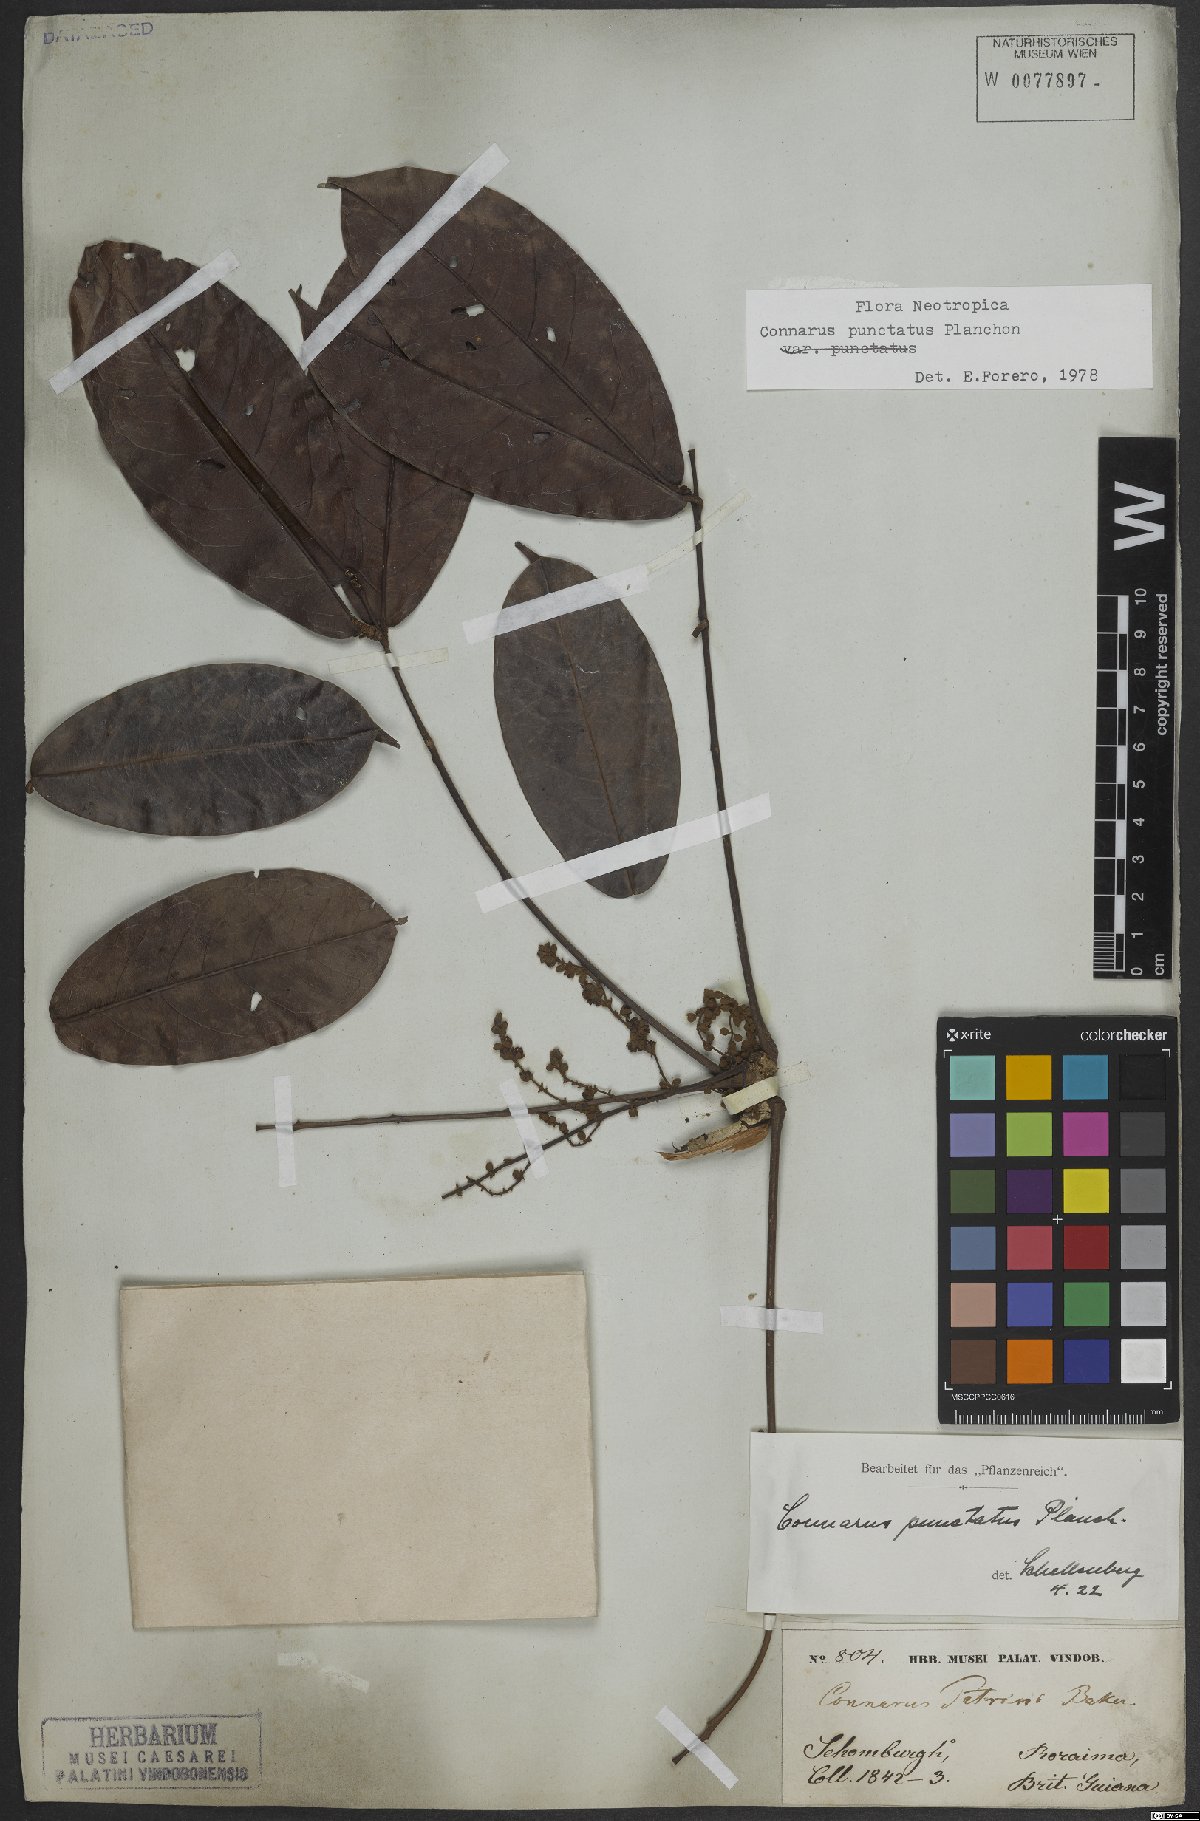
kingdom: Plantae
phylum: Tracheophyta
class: Magnoliopsida
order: Oxalidales
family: Connaraceae
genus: Connarus
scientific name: Connarus punctatus
